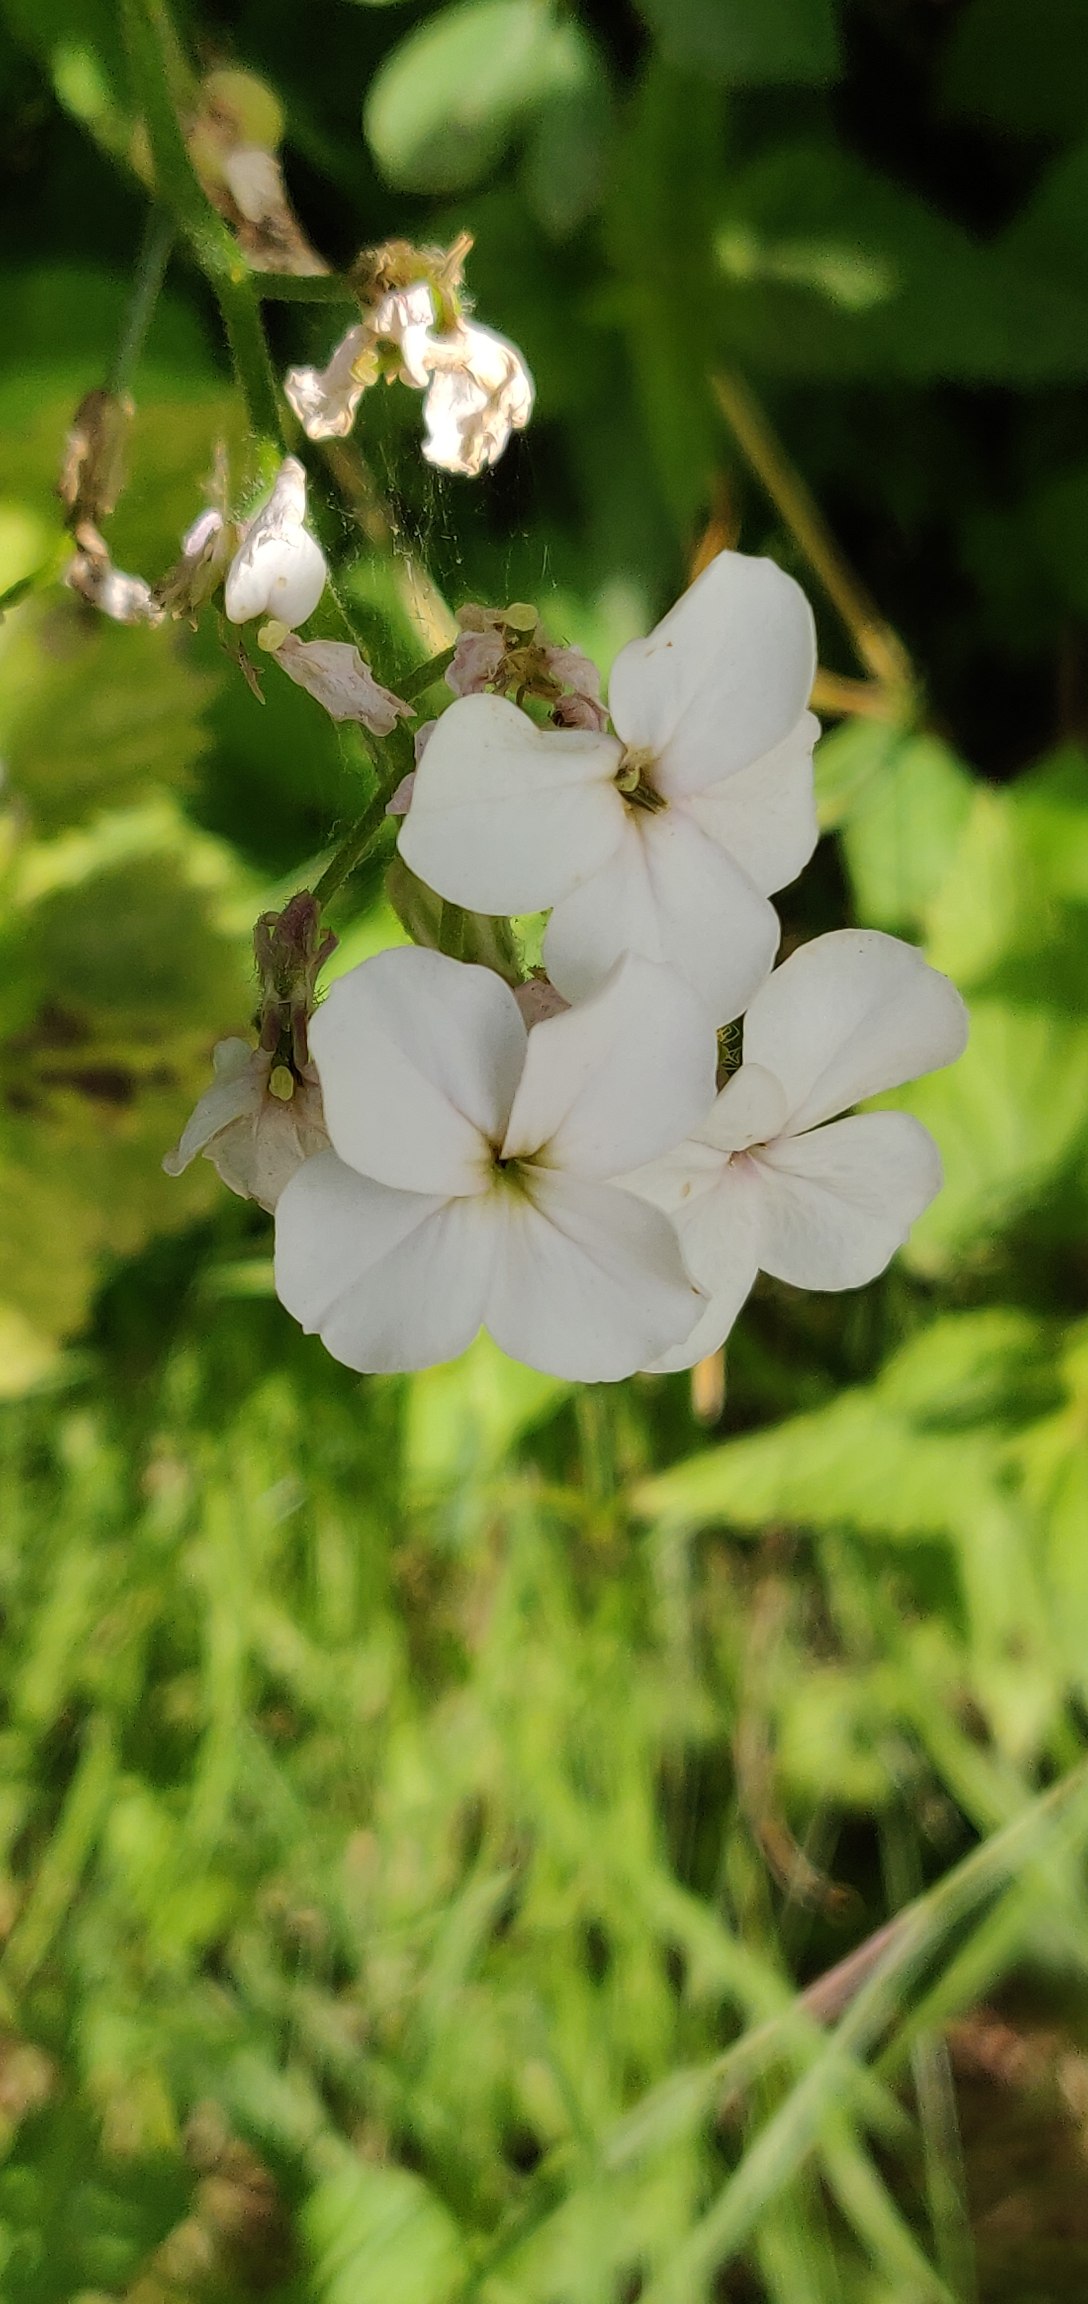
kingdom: Plantae
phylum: Tracheophyta
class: Magnoliopsida
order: Brassicales
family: Brassicaceae
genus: Hesperis
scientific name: Hesperis matronalis
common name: Aftenstjerne
